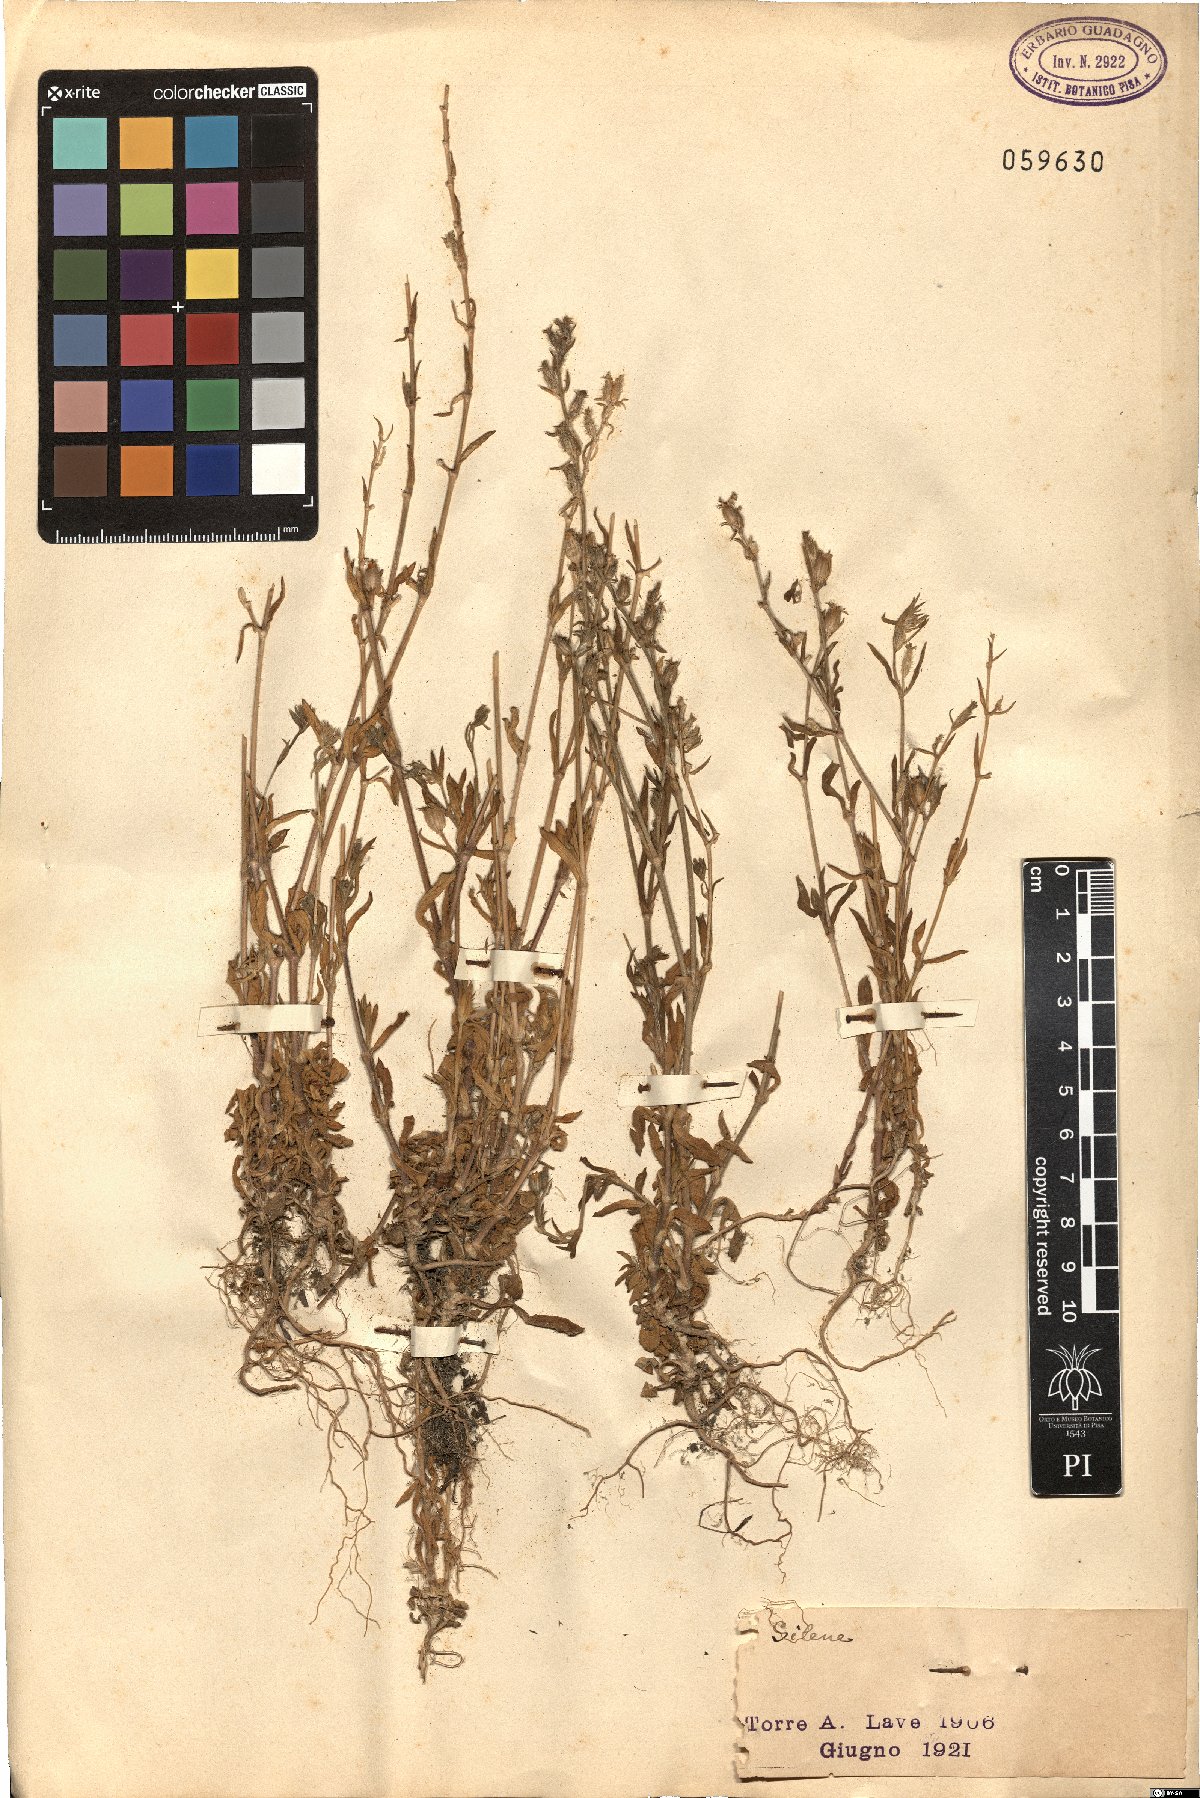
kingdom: Plantae
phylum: Tracheophyta
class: Magnoliopsida
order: Caryophyllales
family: Caryophyllaceae
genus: Silene
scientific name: Silene
